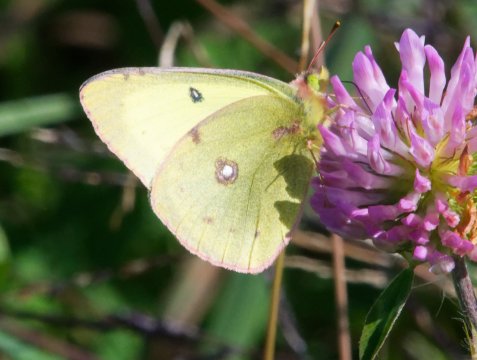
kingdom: Animalia
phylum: Arthropoda
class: Insecta
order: Lepidoptera
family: Pieridae
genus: Colias
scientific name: Colias philodice
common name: Clouded Sulphur
